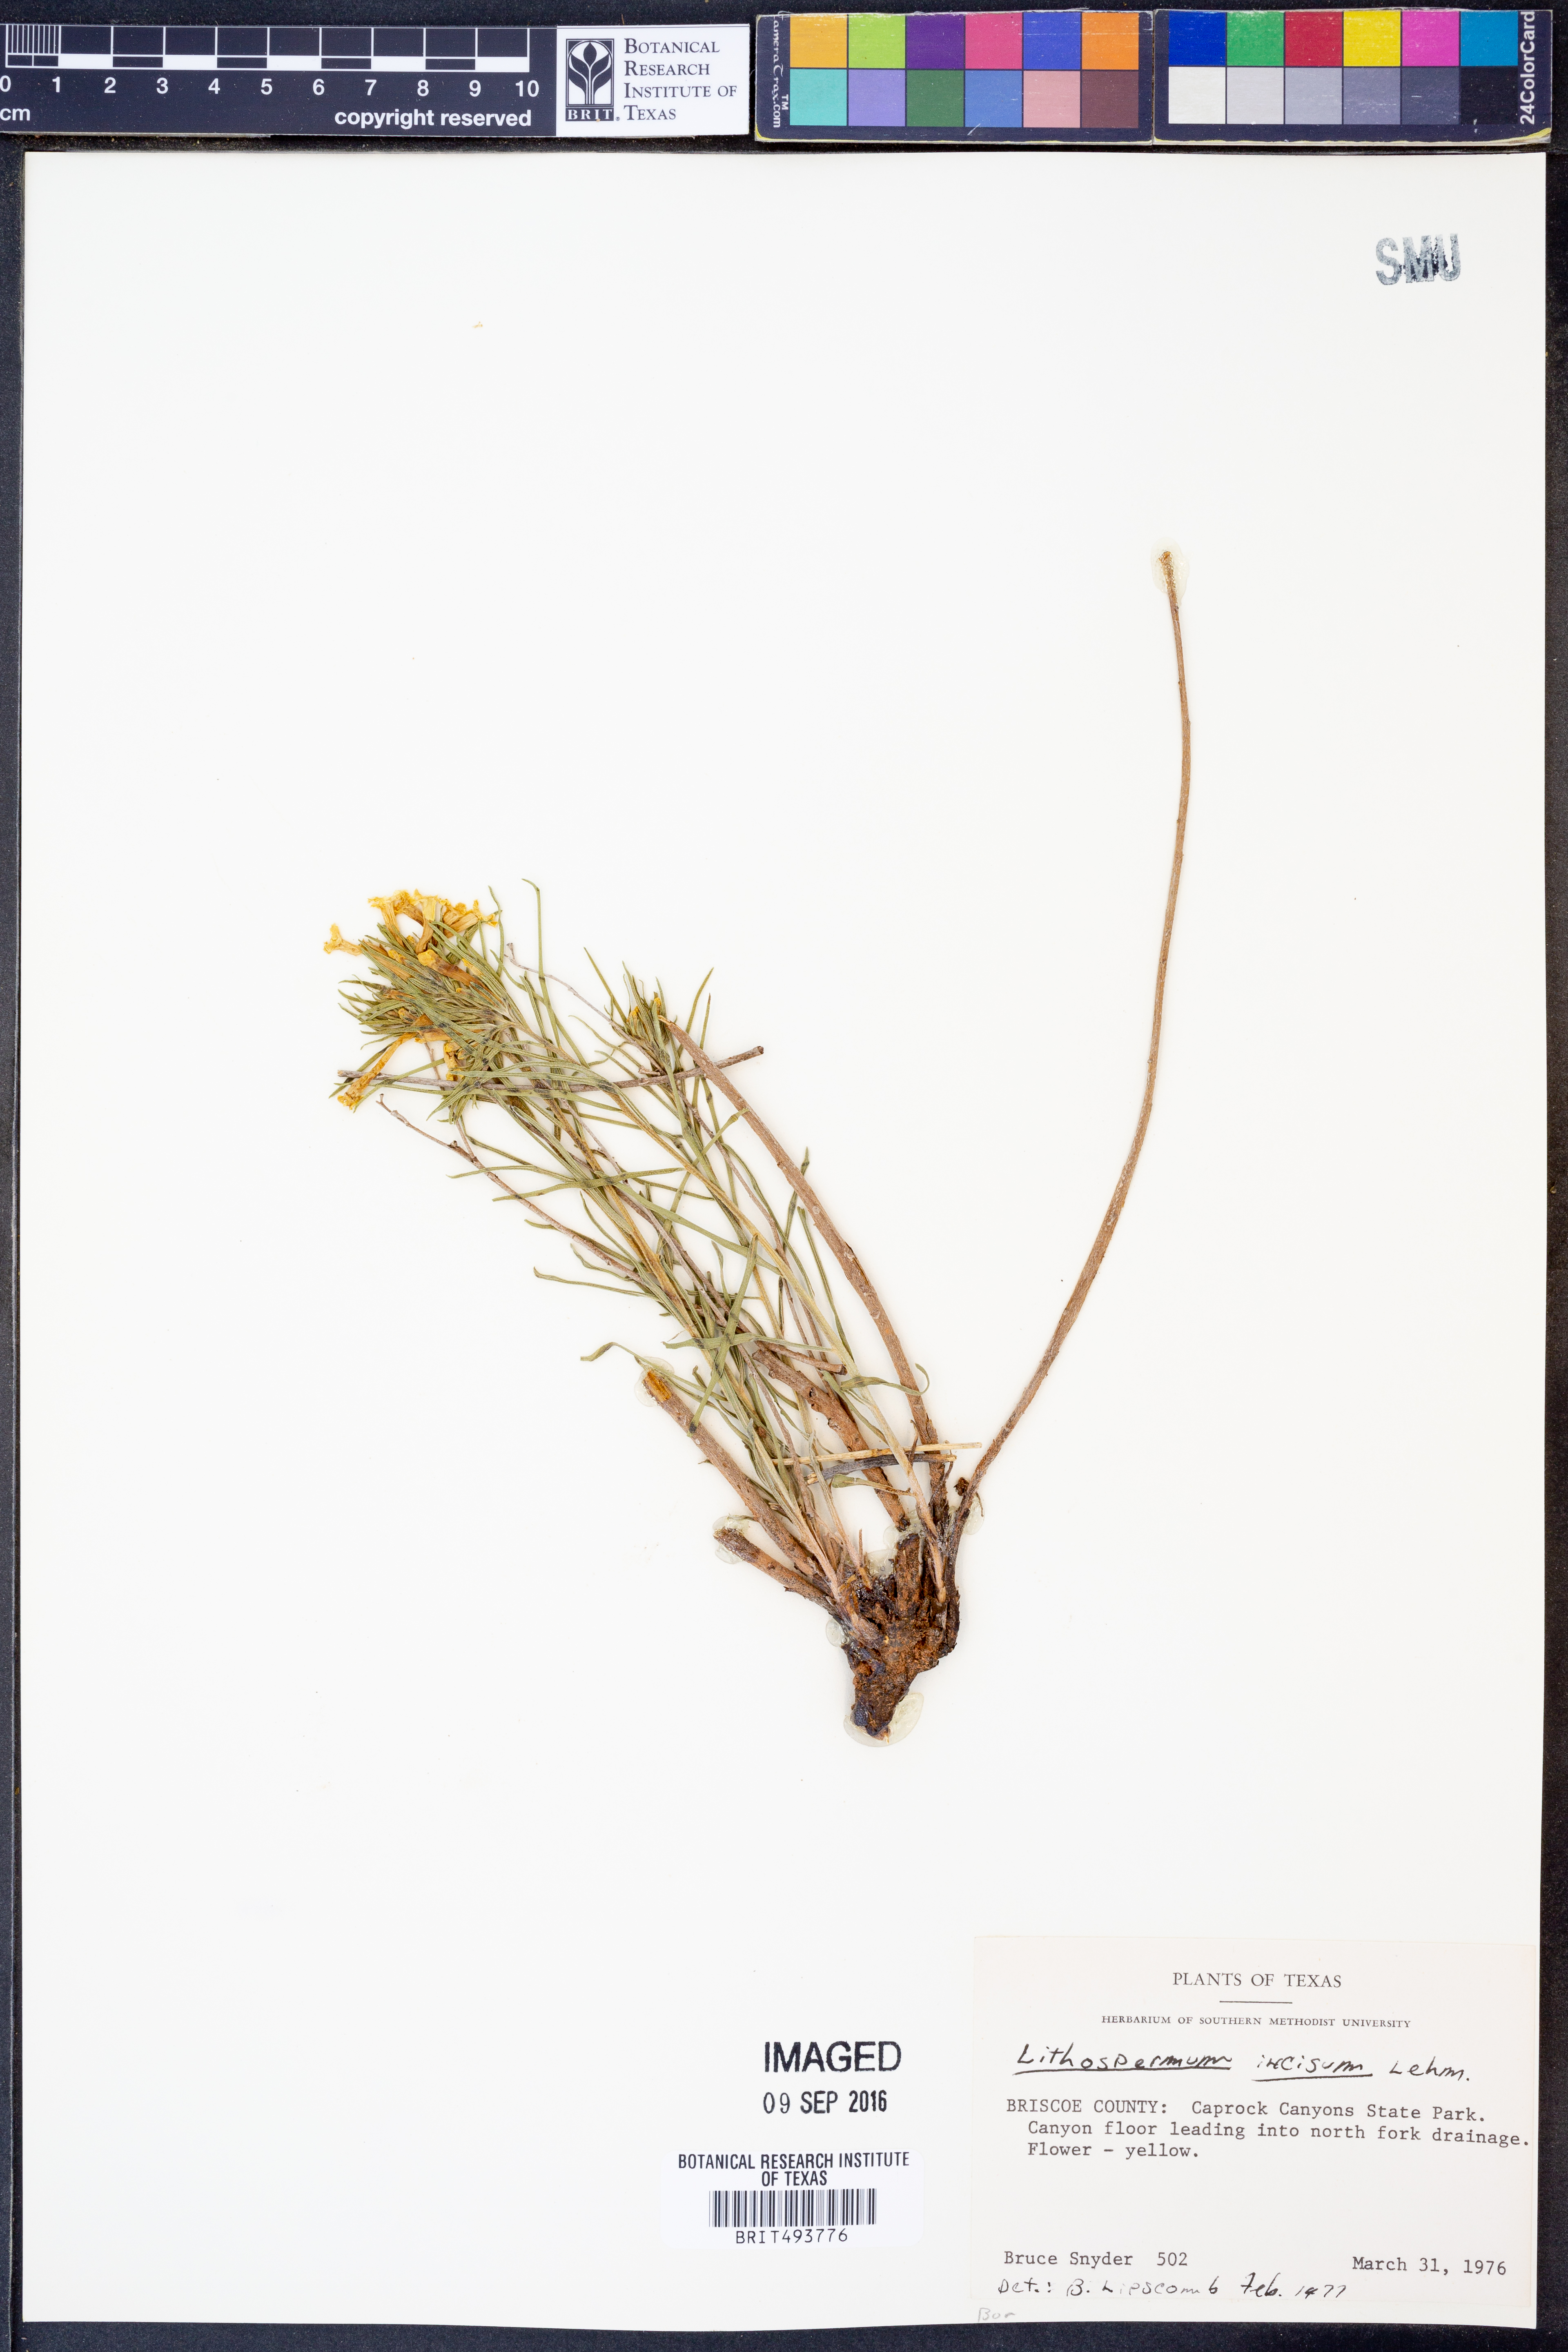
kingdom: Plantae
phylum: Tracheophyta
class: Magnoliopsida
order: Boraginales
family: Boraginaceae
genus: Lithospermum
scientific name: Lithospermum incisum
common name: Fringed gromwell
